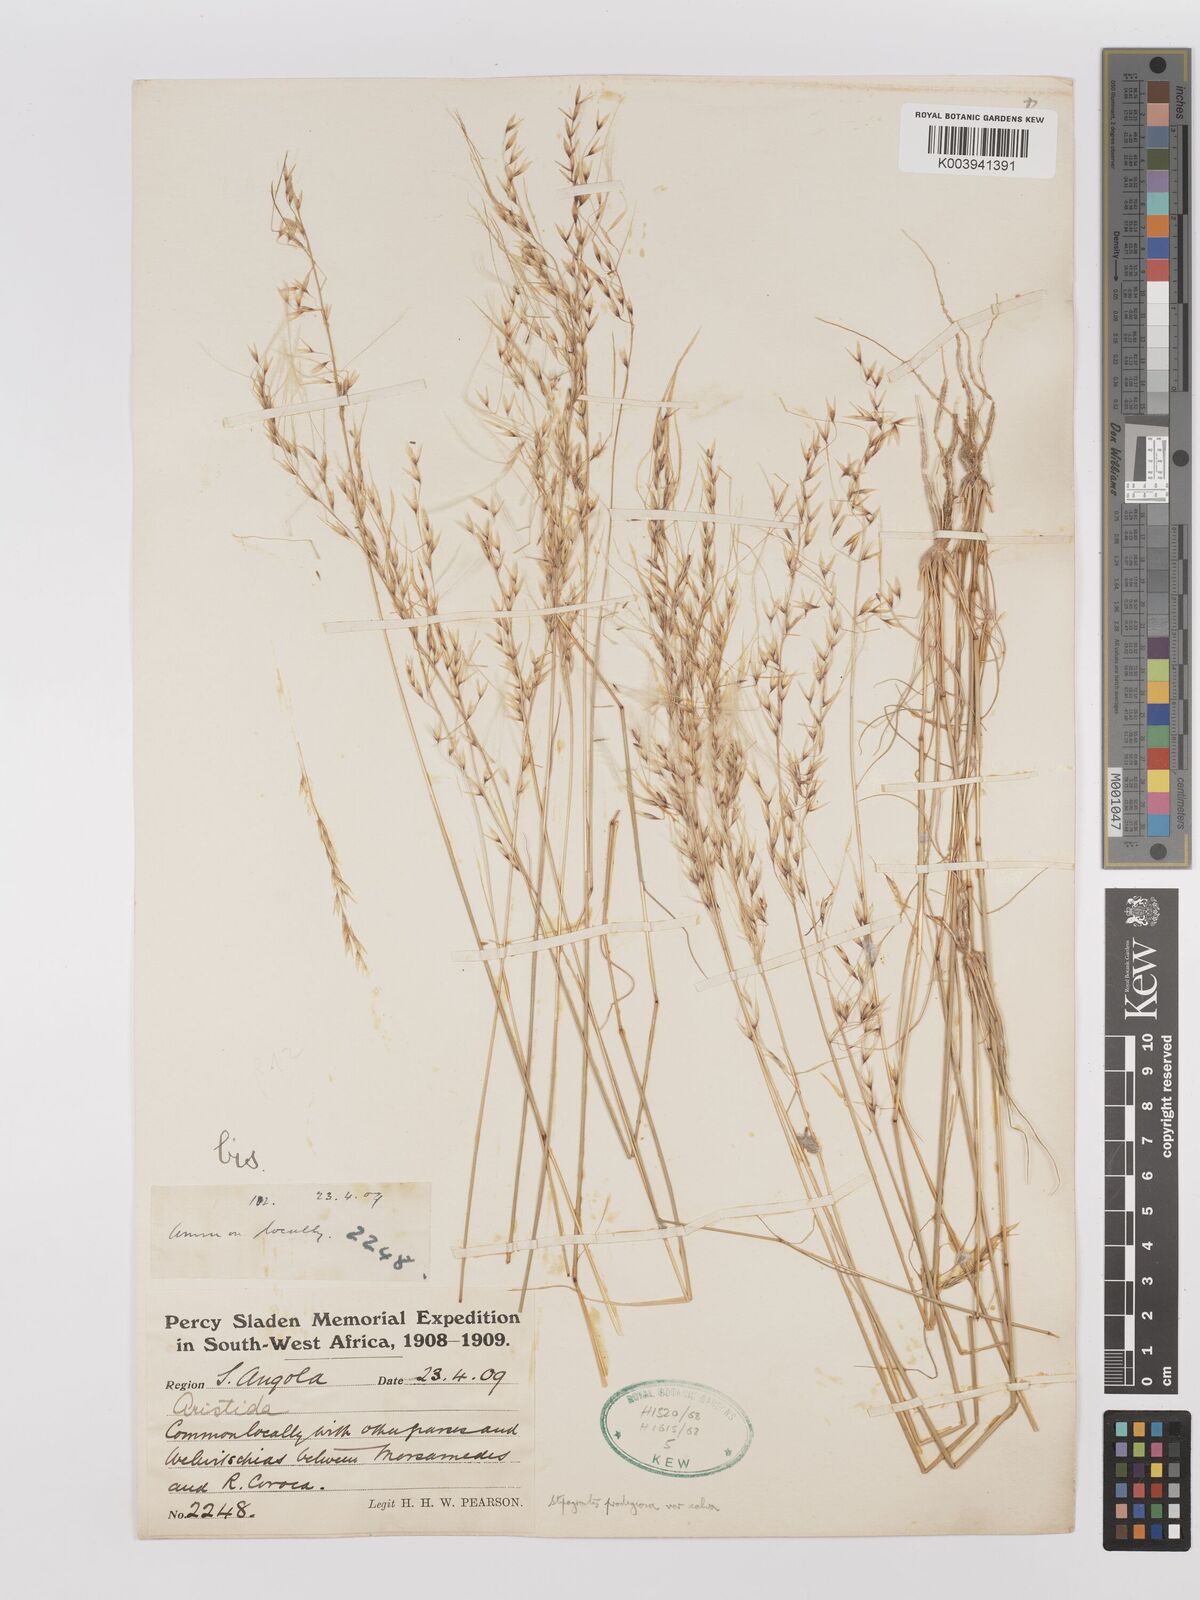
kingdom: Plantae
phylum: Tracheophyta
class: Liliopsida
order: Poales
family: Poaceae
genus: Stipagrostis
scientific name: Stipagrostis prodigiosa
